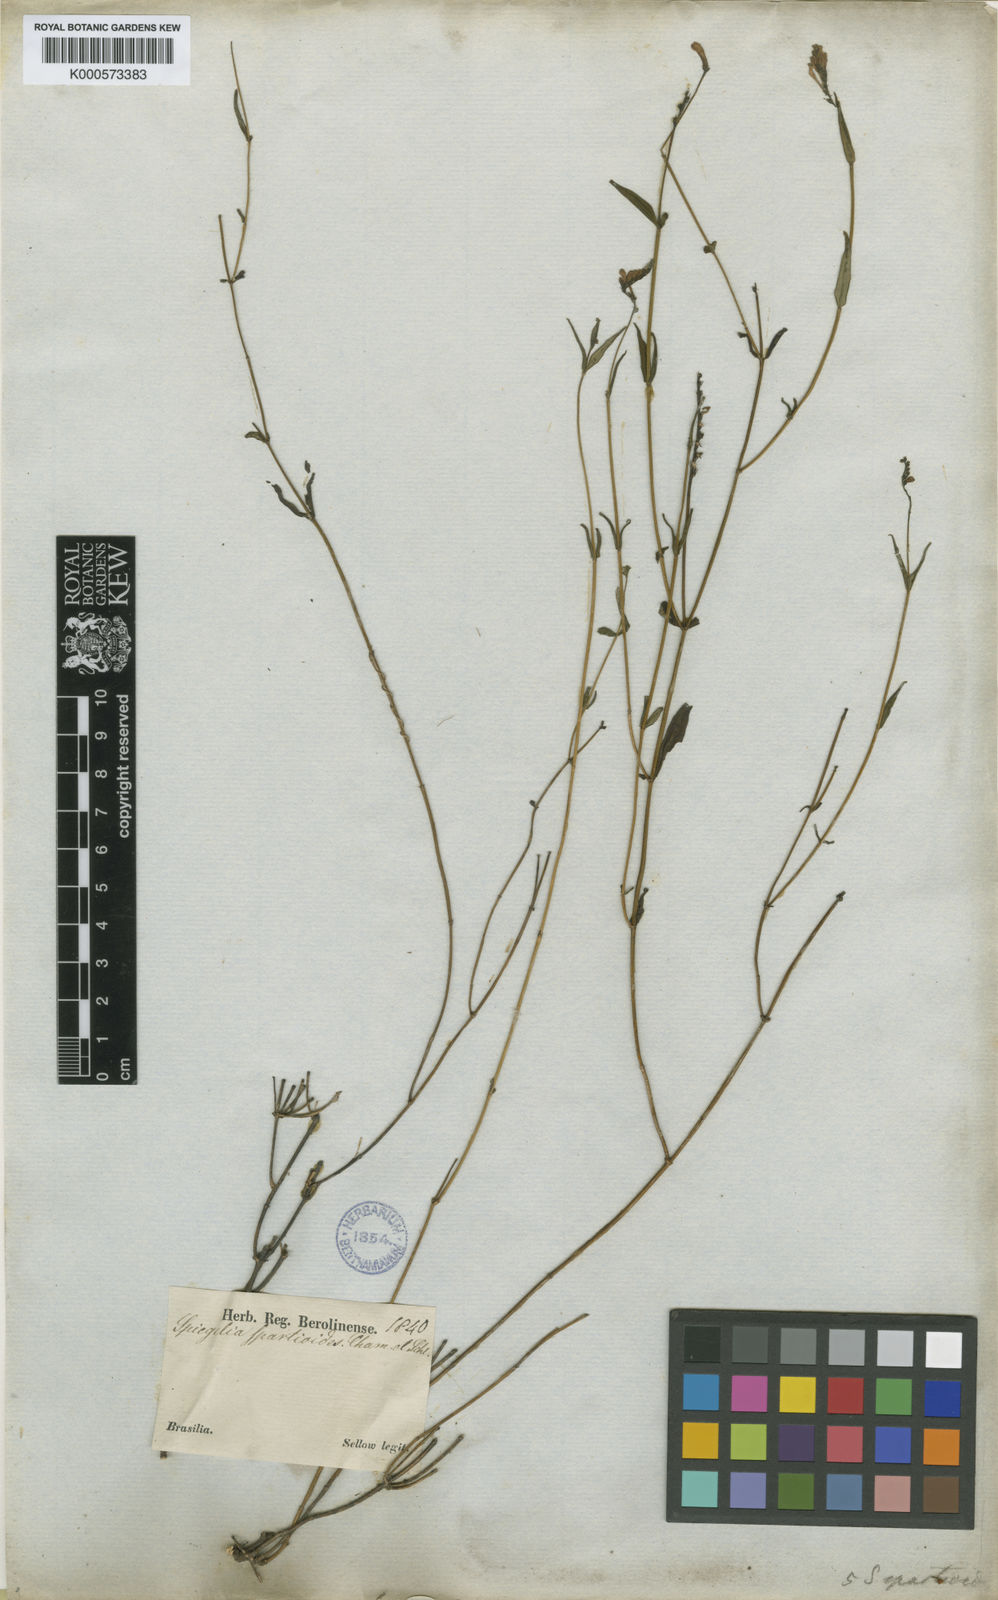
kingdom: Plantae
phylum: Tracheophyta
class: Magnoliopsida
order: Gentianales
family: Loganiaceae
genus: Spigelia
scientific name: Spigelia
